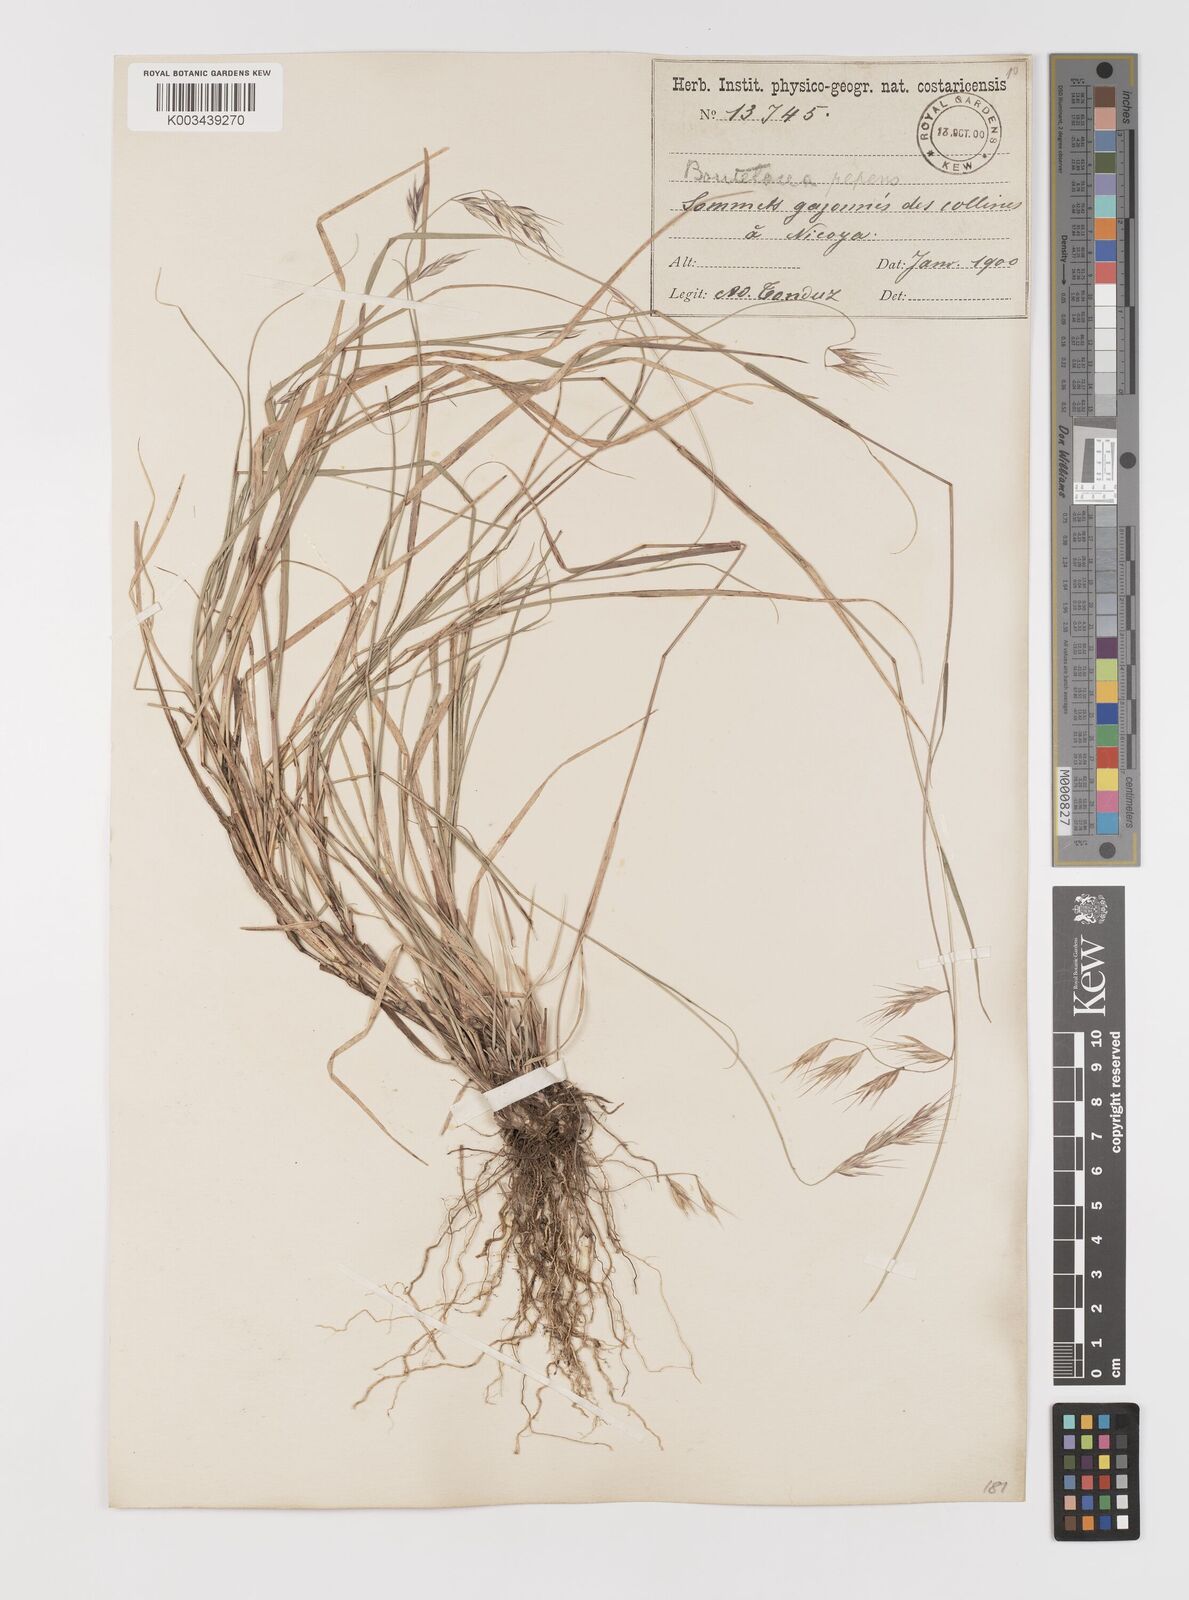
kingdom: Plantae
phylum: Tracheophyta
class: Liliopsida
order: Poales
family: Poaceae
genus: Bouteloua
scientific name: Bouteloua repens
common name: Slender grama
